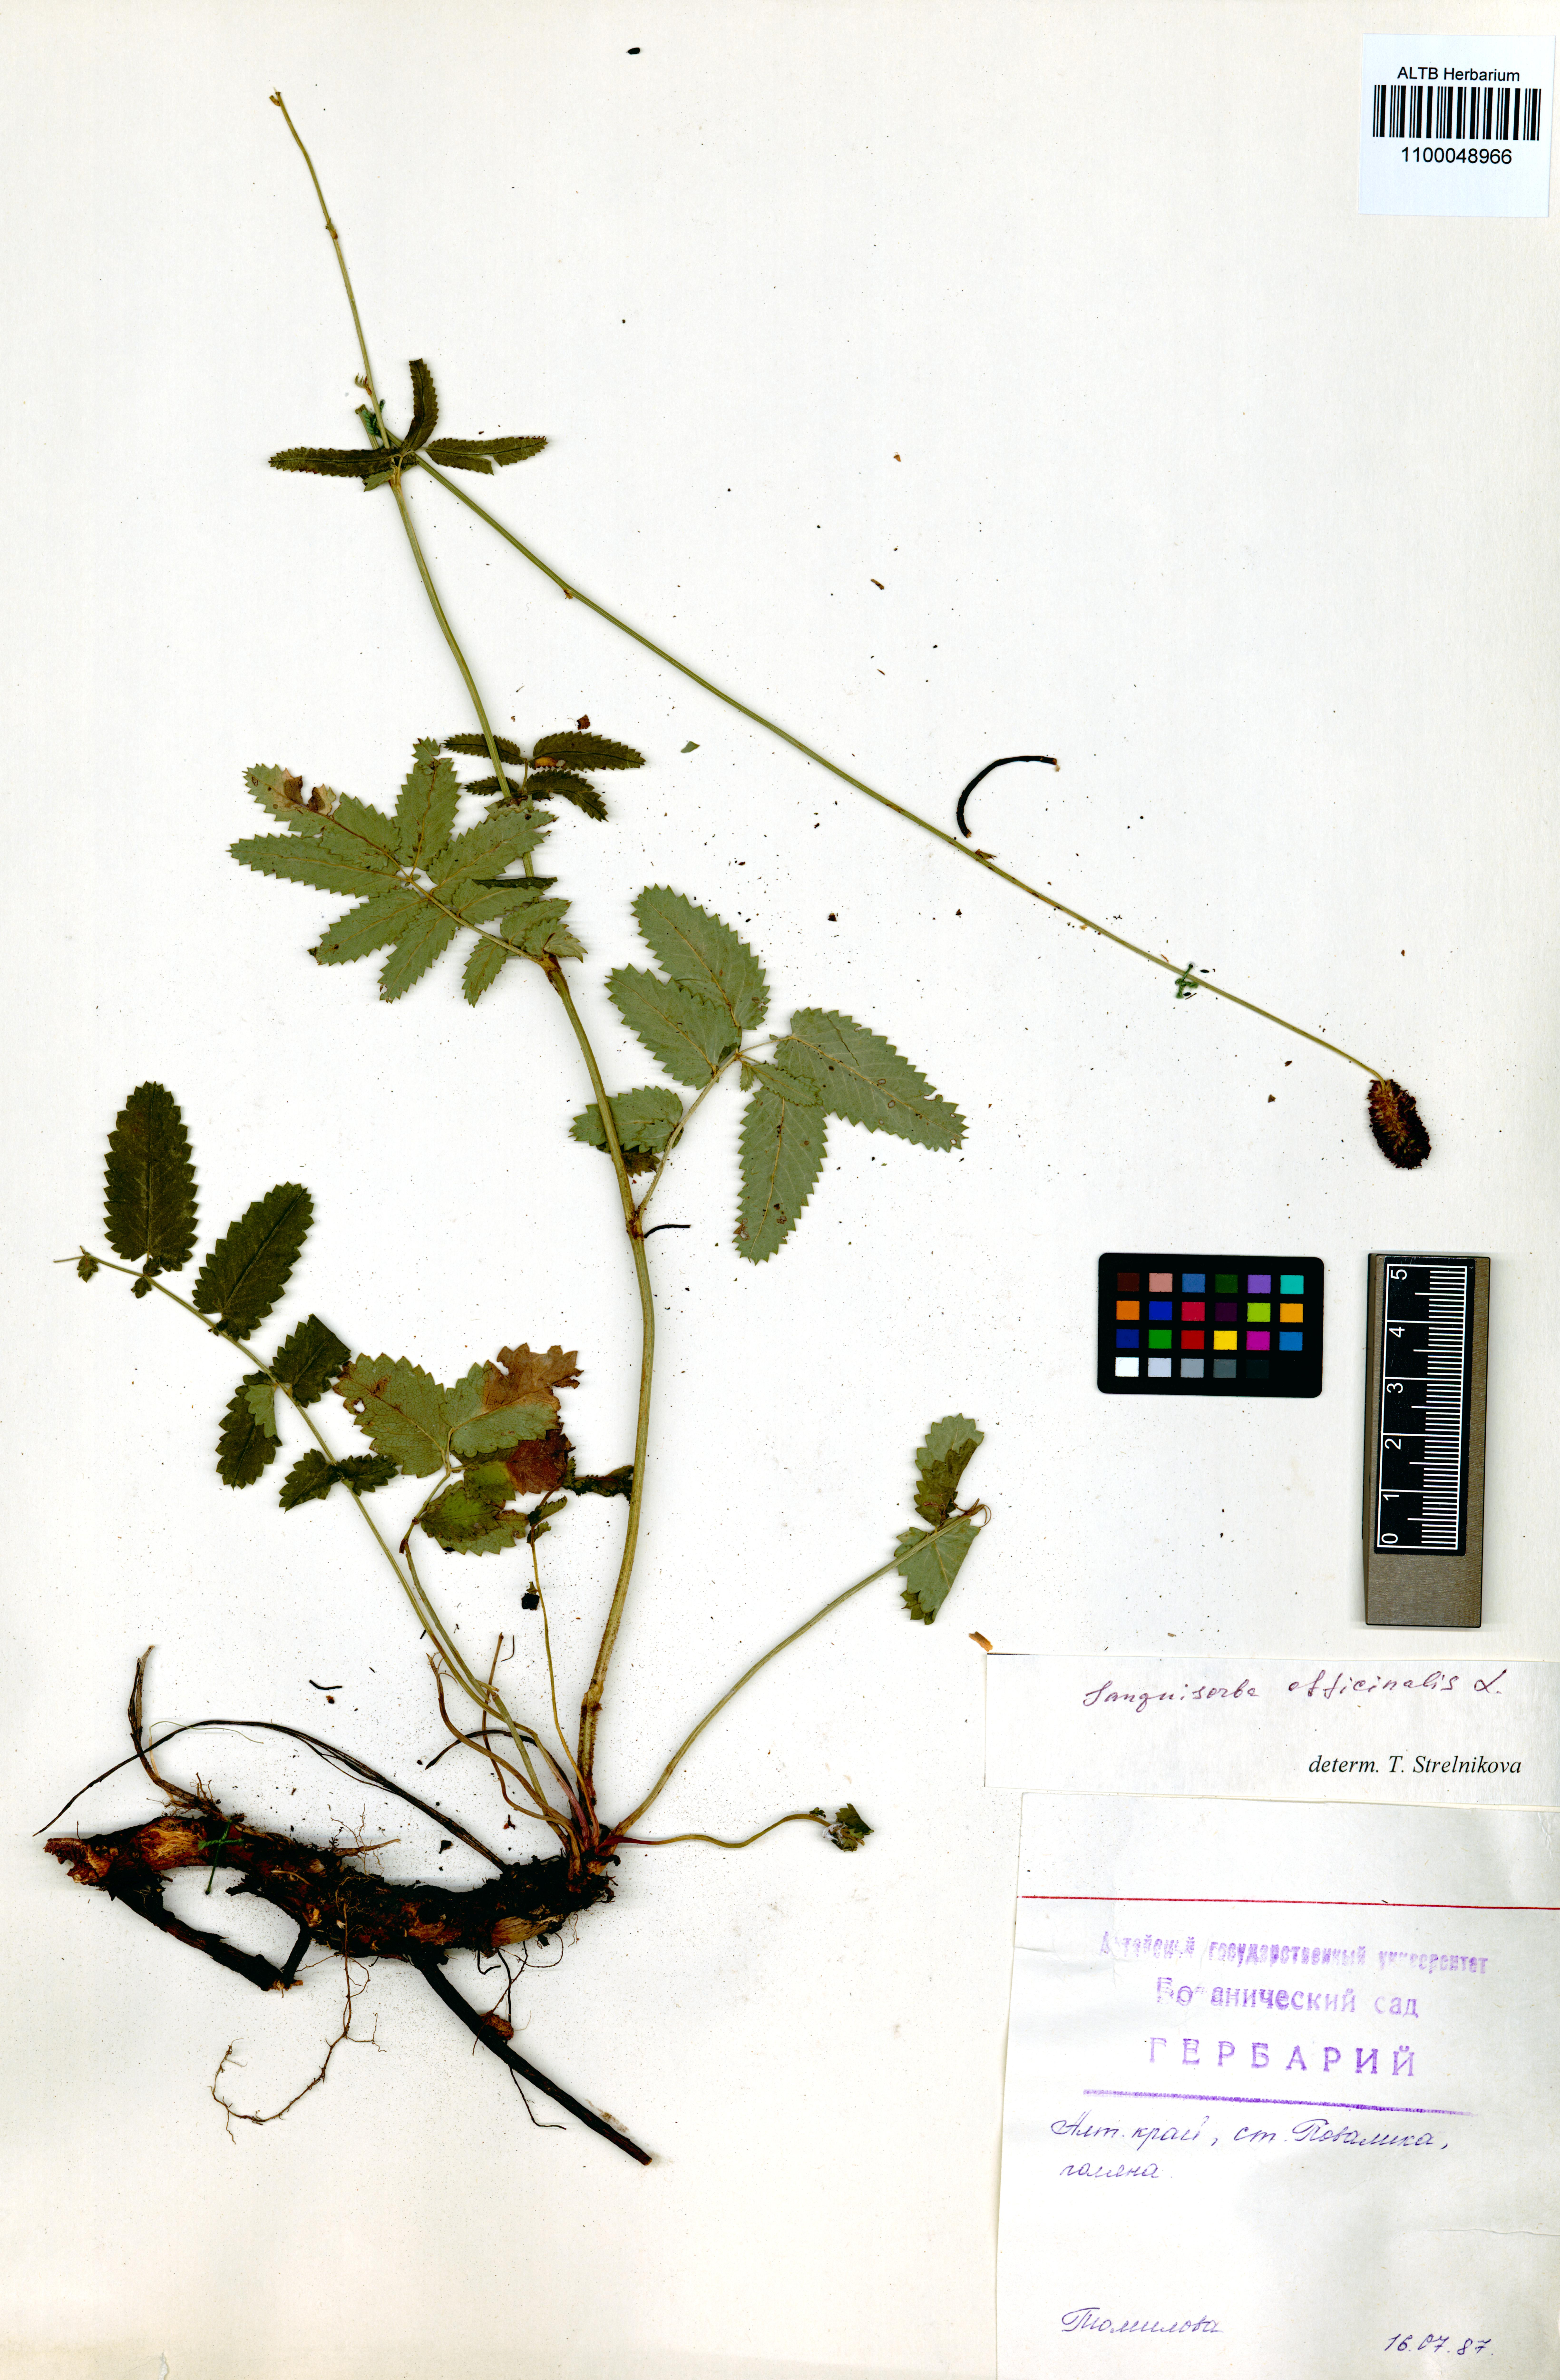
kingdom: Plantae
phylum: Tracheophyta
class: Magnoliopsida
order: Rosales
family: Rosaceae
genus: Sanguisorba
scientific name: Sanguisorba officinalis
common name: Great burnet
